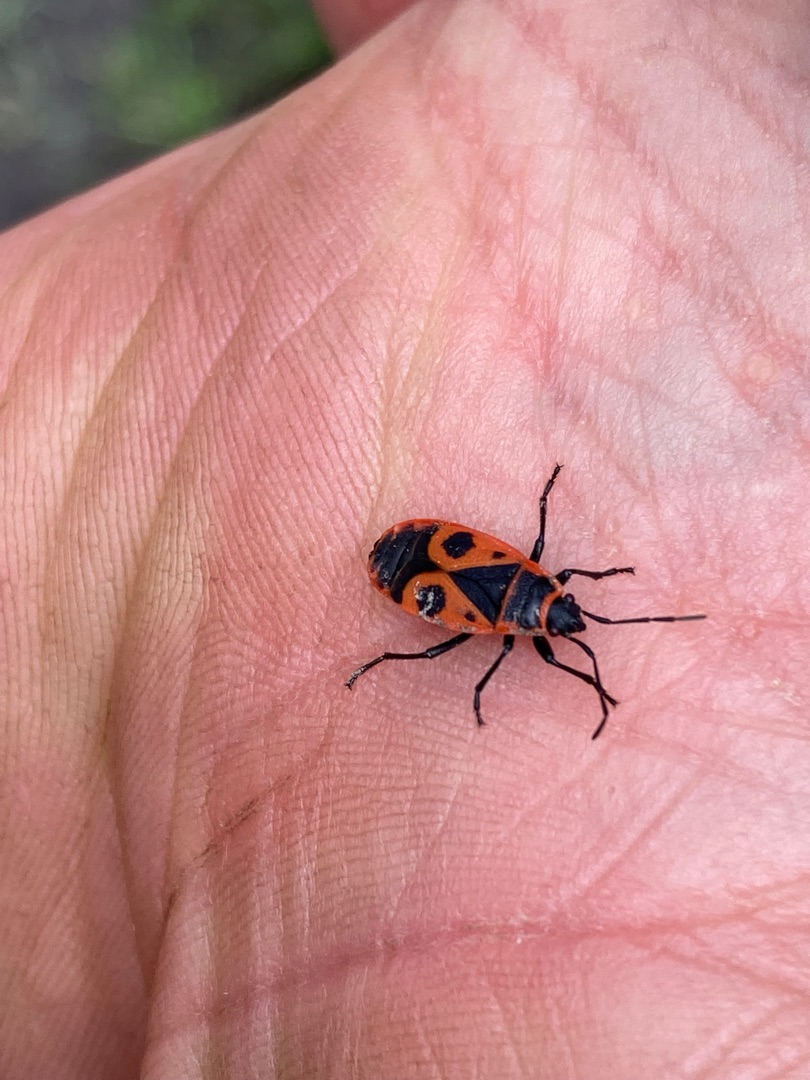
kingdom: Animalia
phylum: Arthropoda
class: Insecta
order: Hemiptera
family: Pyrrhocoridae
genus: Pyrrhocoris
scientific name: Pyrrhocoris apterus
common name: Ildtæge
